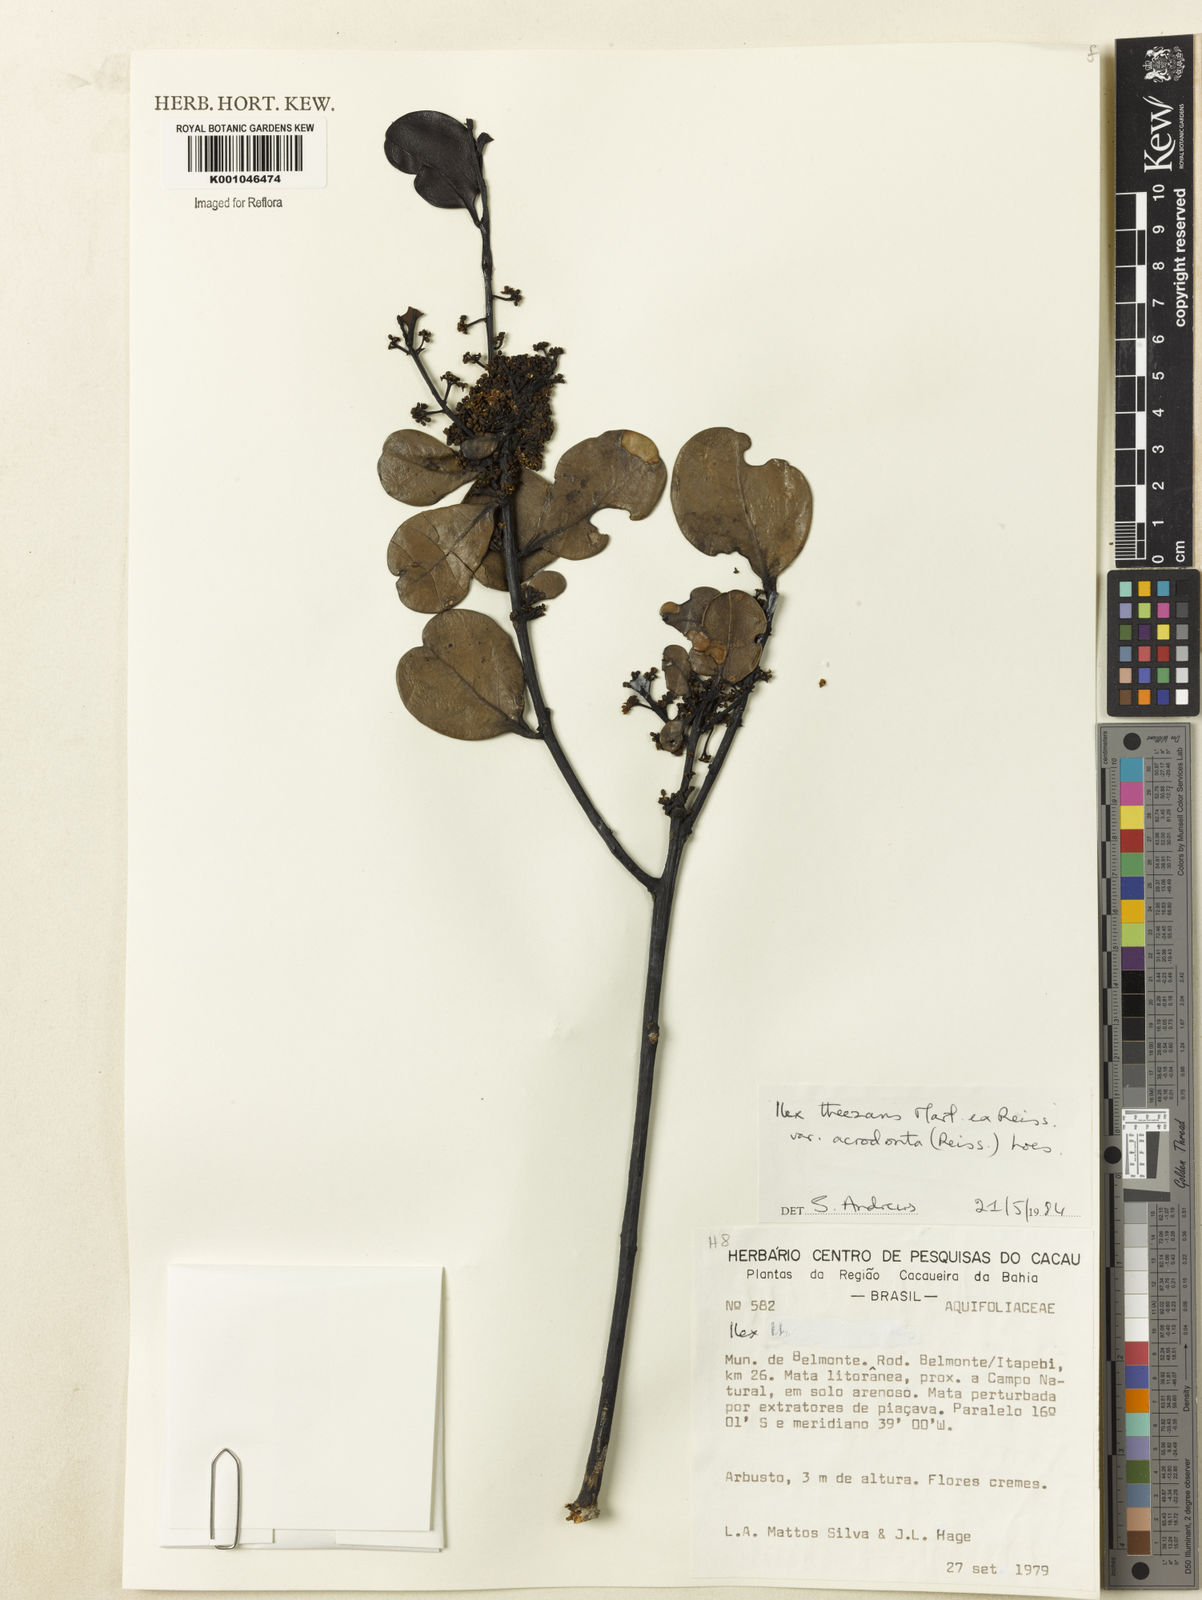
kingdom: Plantae
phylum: Tracheophyta
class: Magnoliopsida
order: Aquifoliales
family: Aquifoliaceae
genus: Ilex
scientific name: Ilex paraguariensis
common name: Paraguay tea
